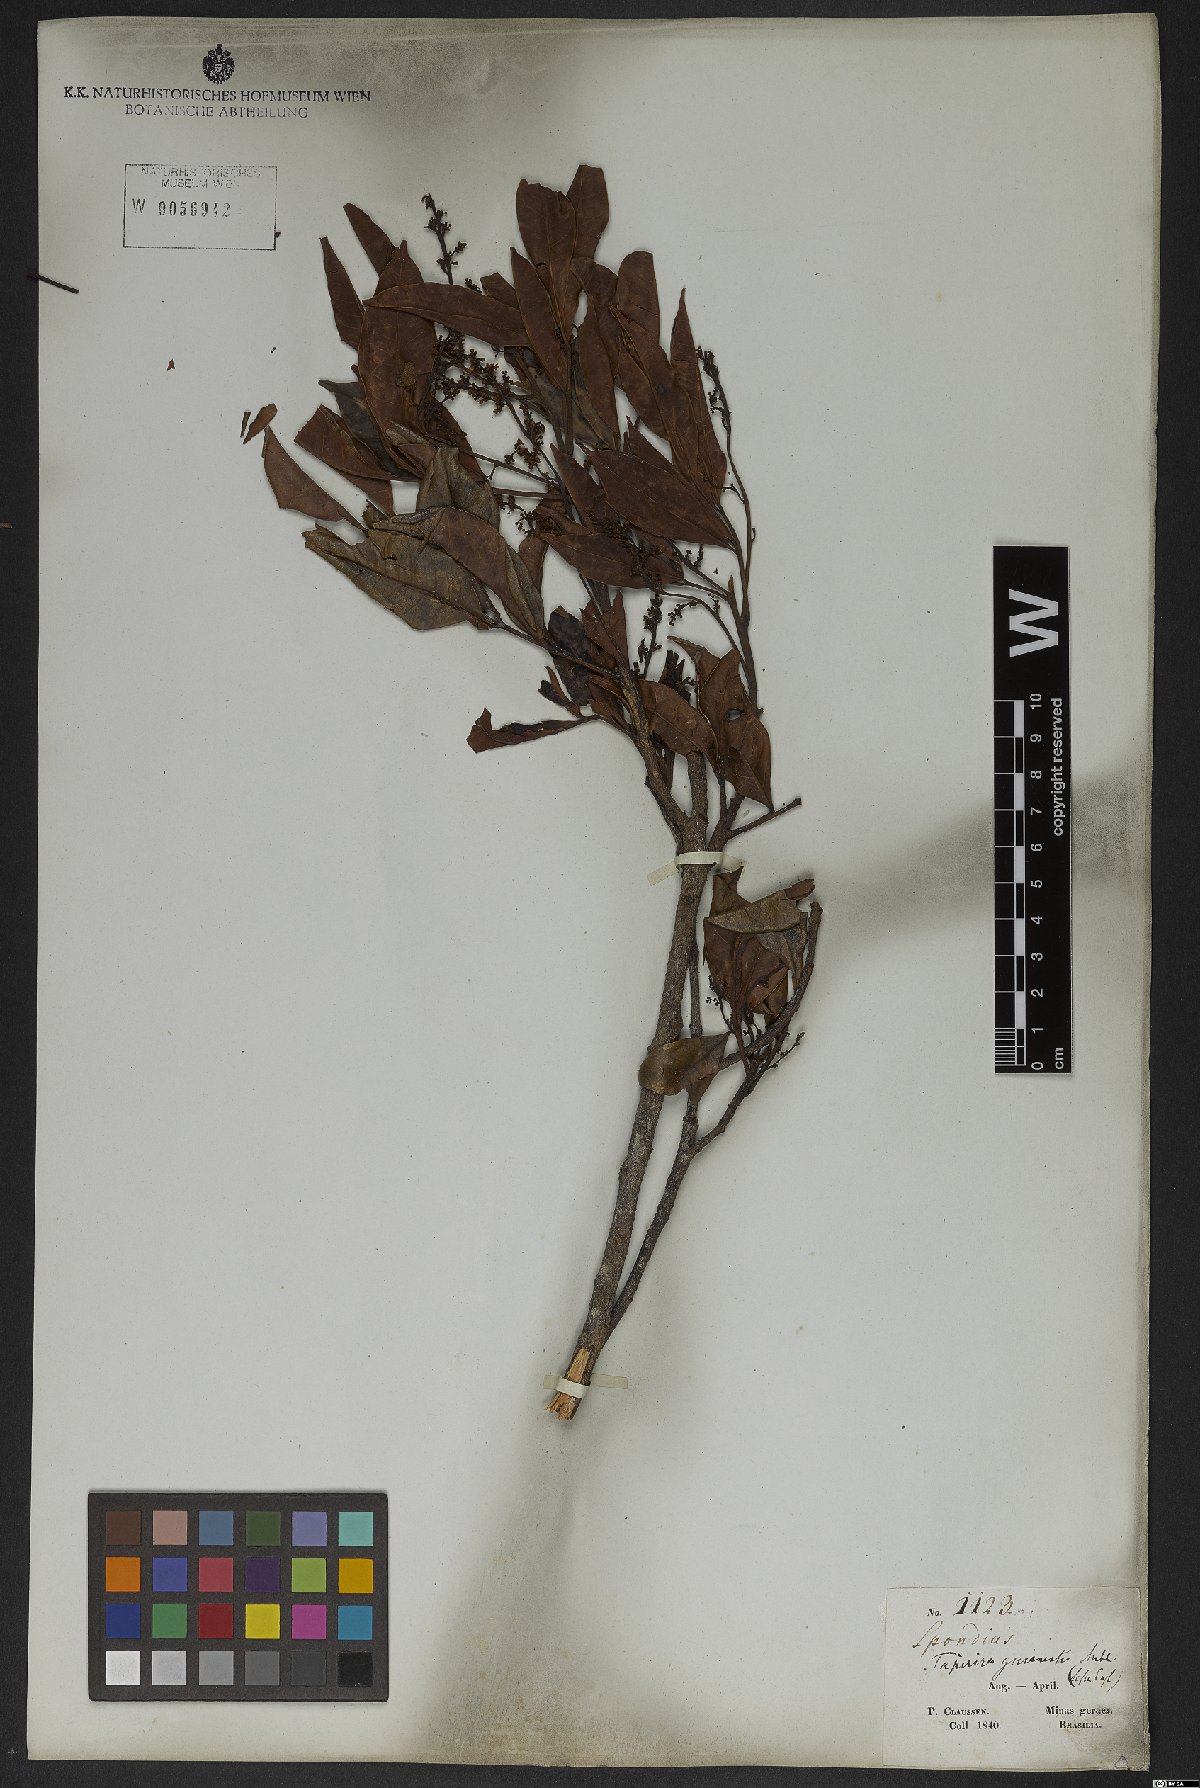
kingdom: Plantae
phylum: Tracheophyta
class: Magnoliopsida
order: Sapindales
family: Anacardiaceae
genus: Tapirira
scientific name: Tapirira guianensis
